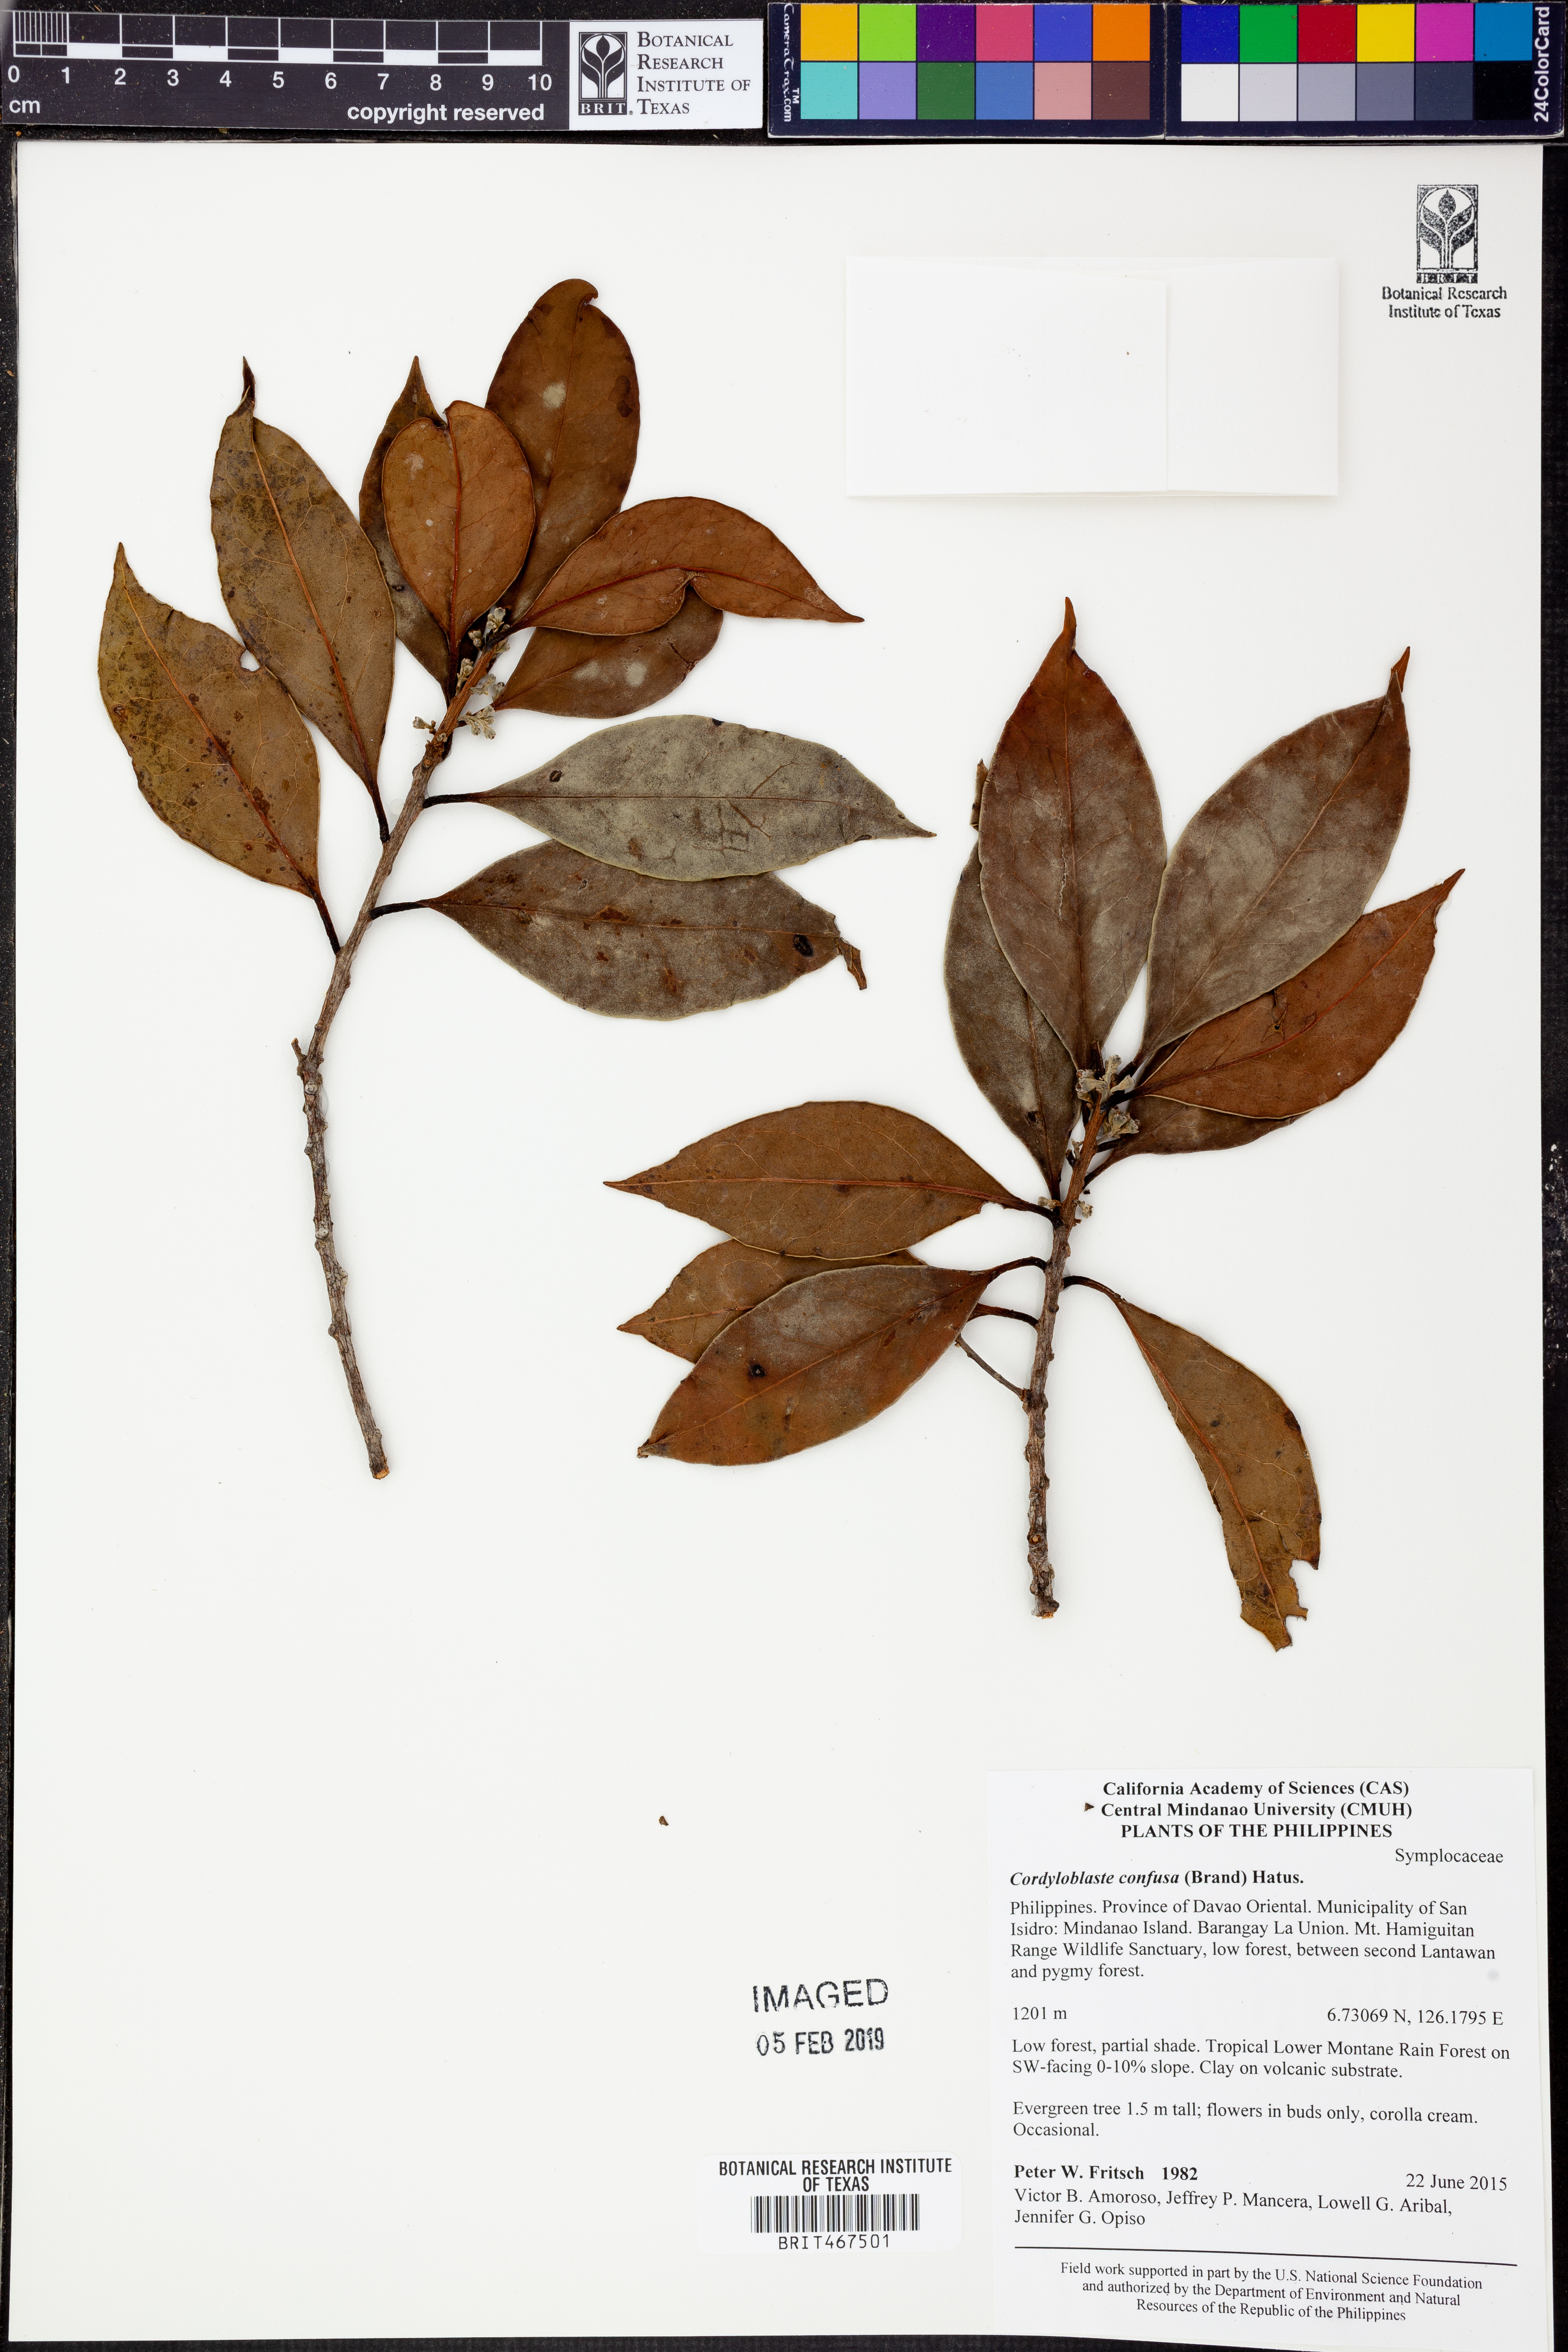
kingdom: Plantae
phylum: Tracheophyta
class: Magnoliopsida
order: Ericales
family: Symplocaceae
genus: Symplocos
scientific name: Symplocos pendula
